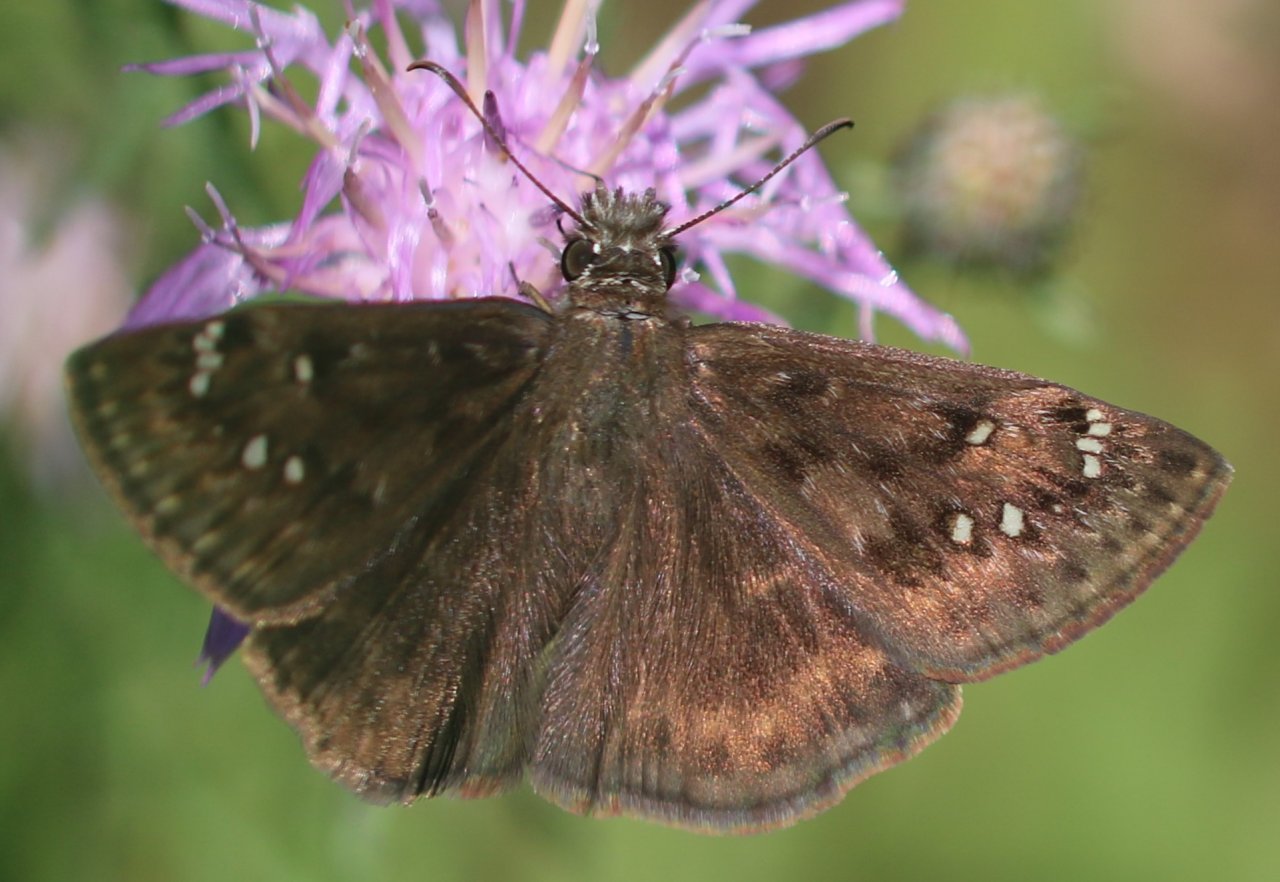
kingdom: Animalia
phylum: Arthropoda
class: Insecta
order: Lepidoptera
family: Hesperiidae
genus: Gesta
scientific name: Gesta
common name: Horace's Duskywing
